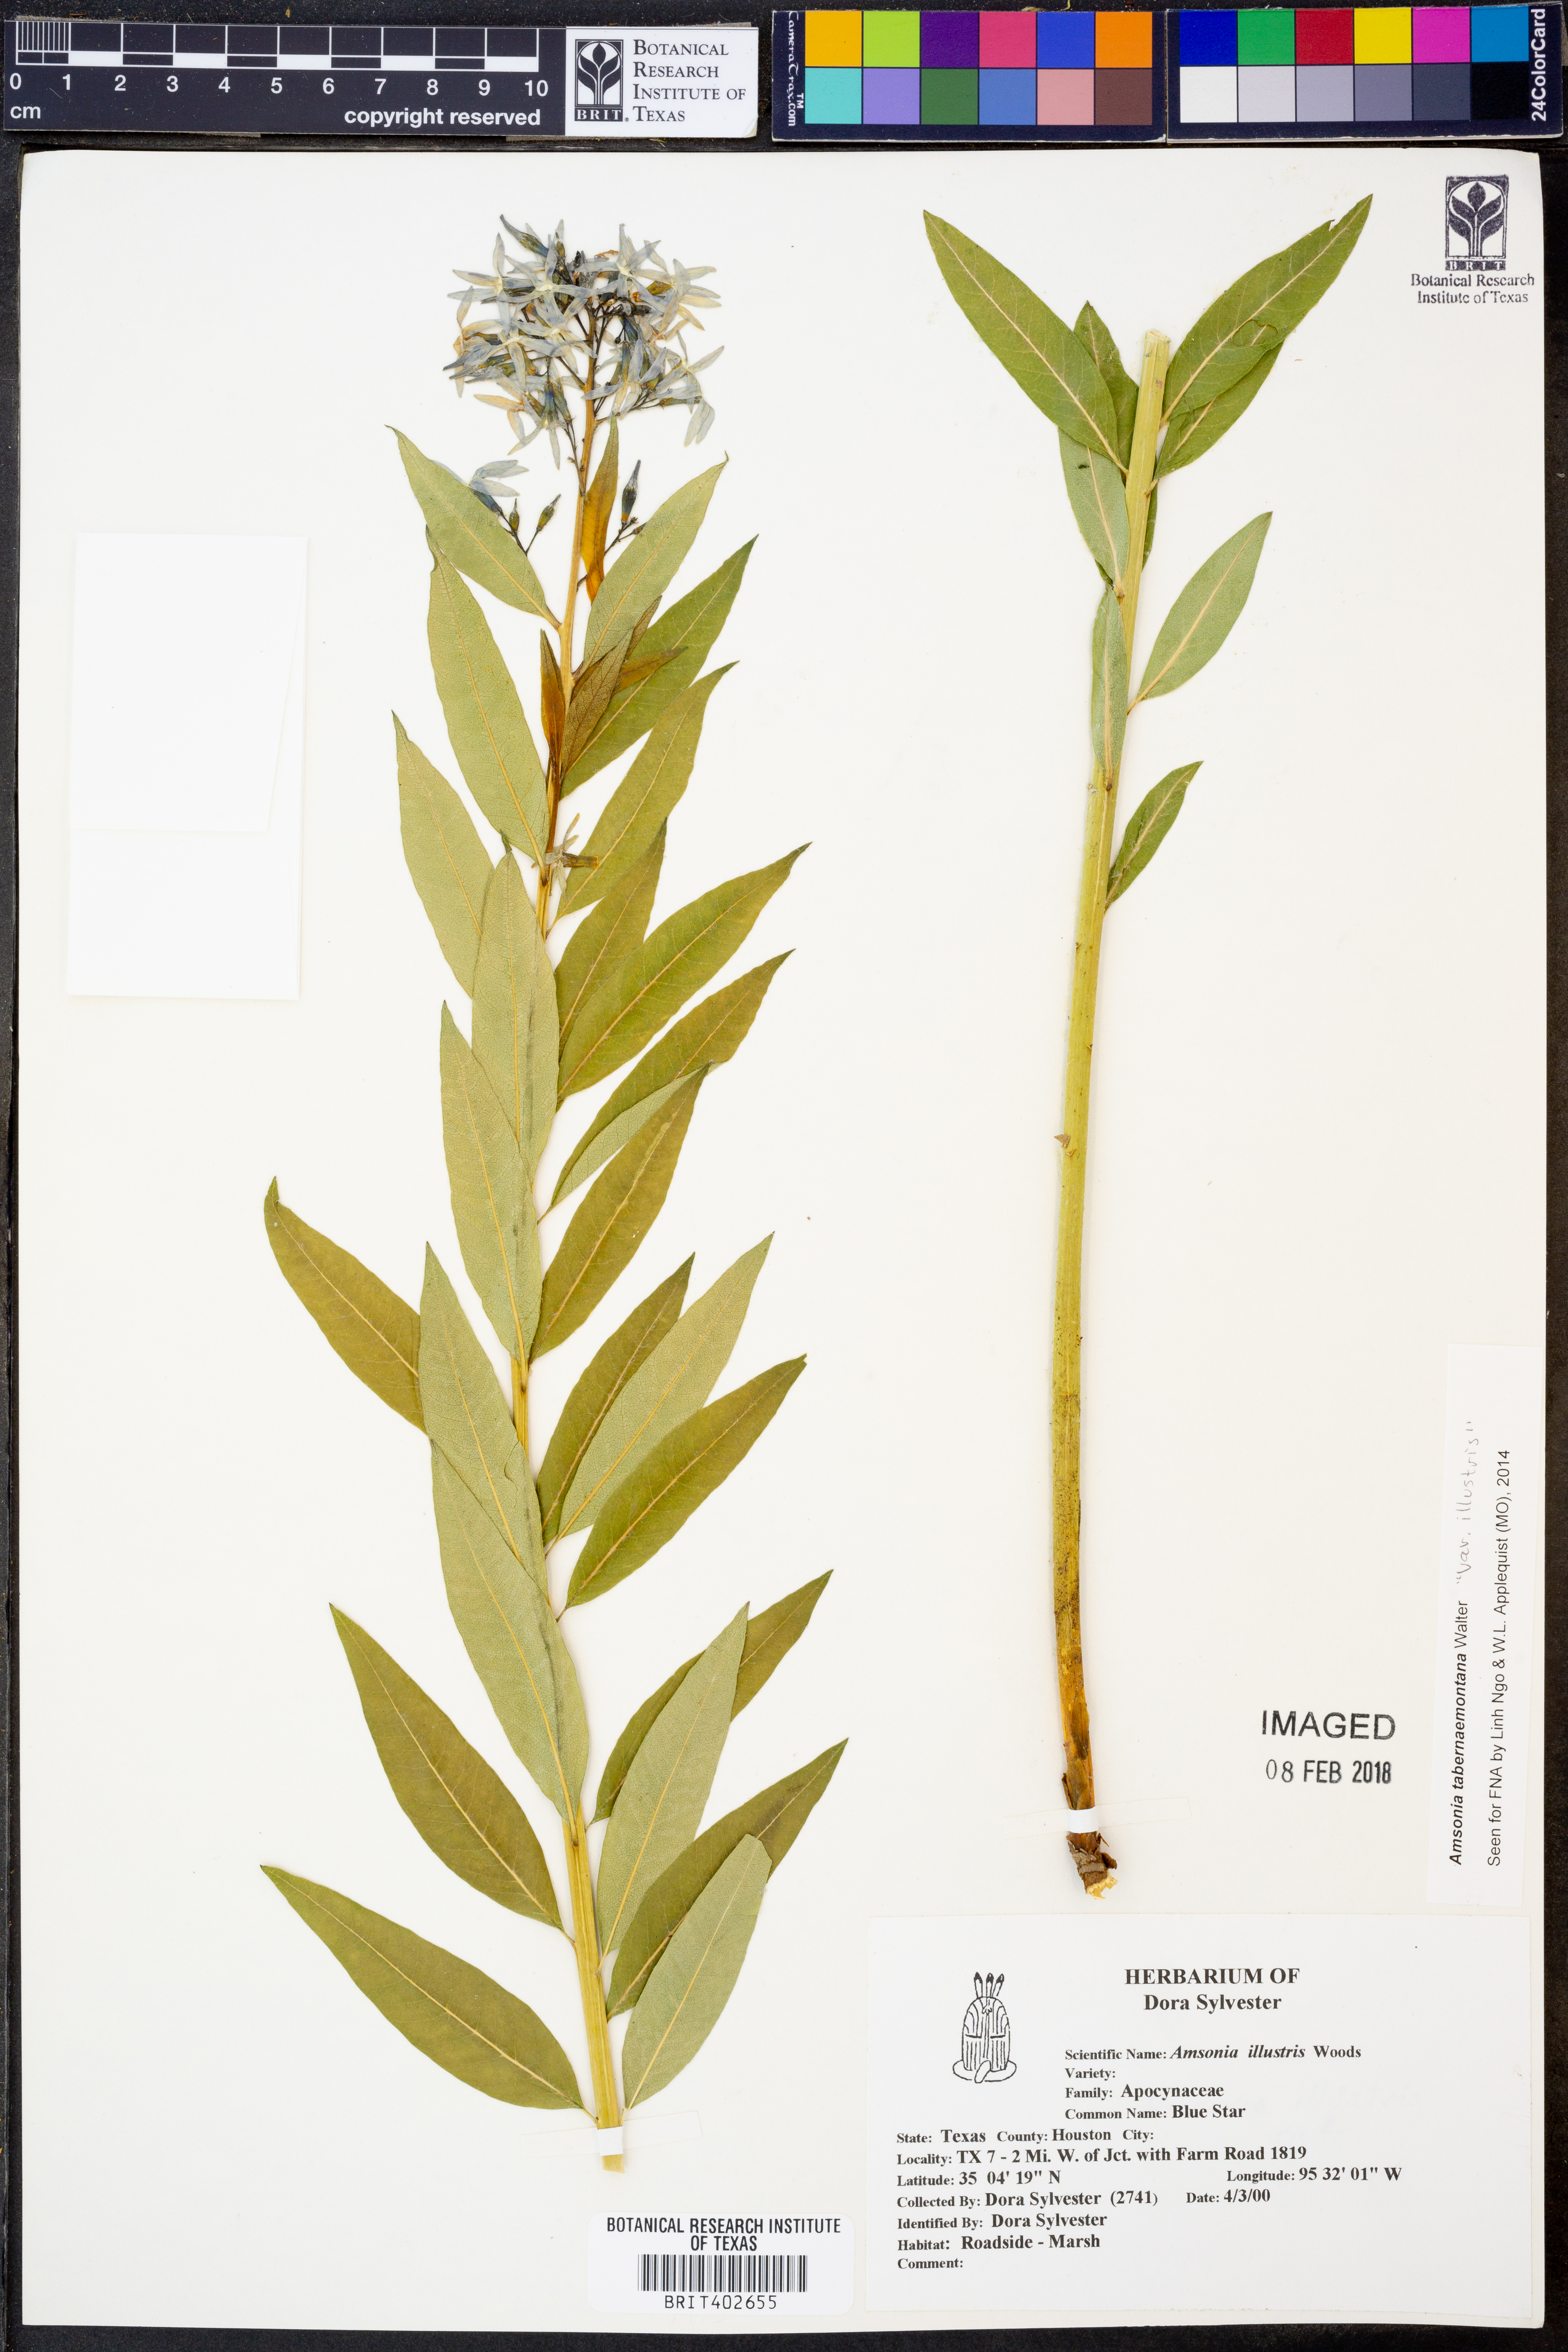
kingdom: Plantae
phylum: Tracheophyta
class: Magnoliopsida
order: Gentianales
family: Apocynaceae
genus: Amsonia
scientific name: Amsonia tabernaemontana
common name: Texas-star
